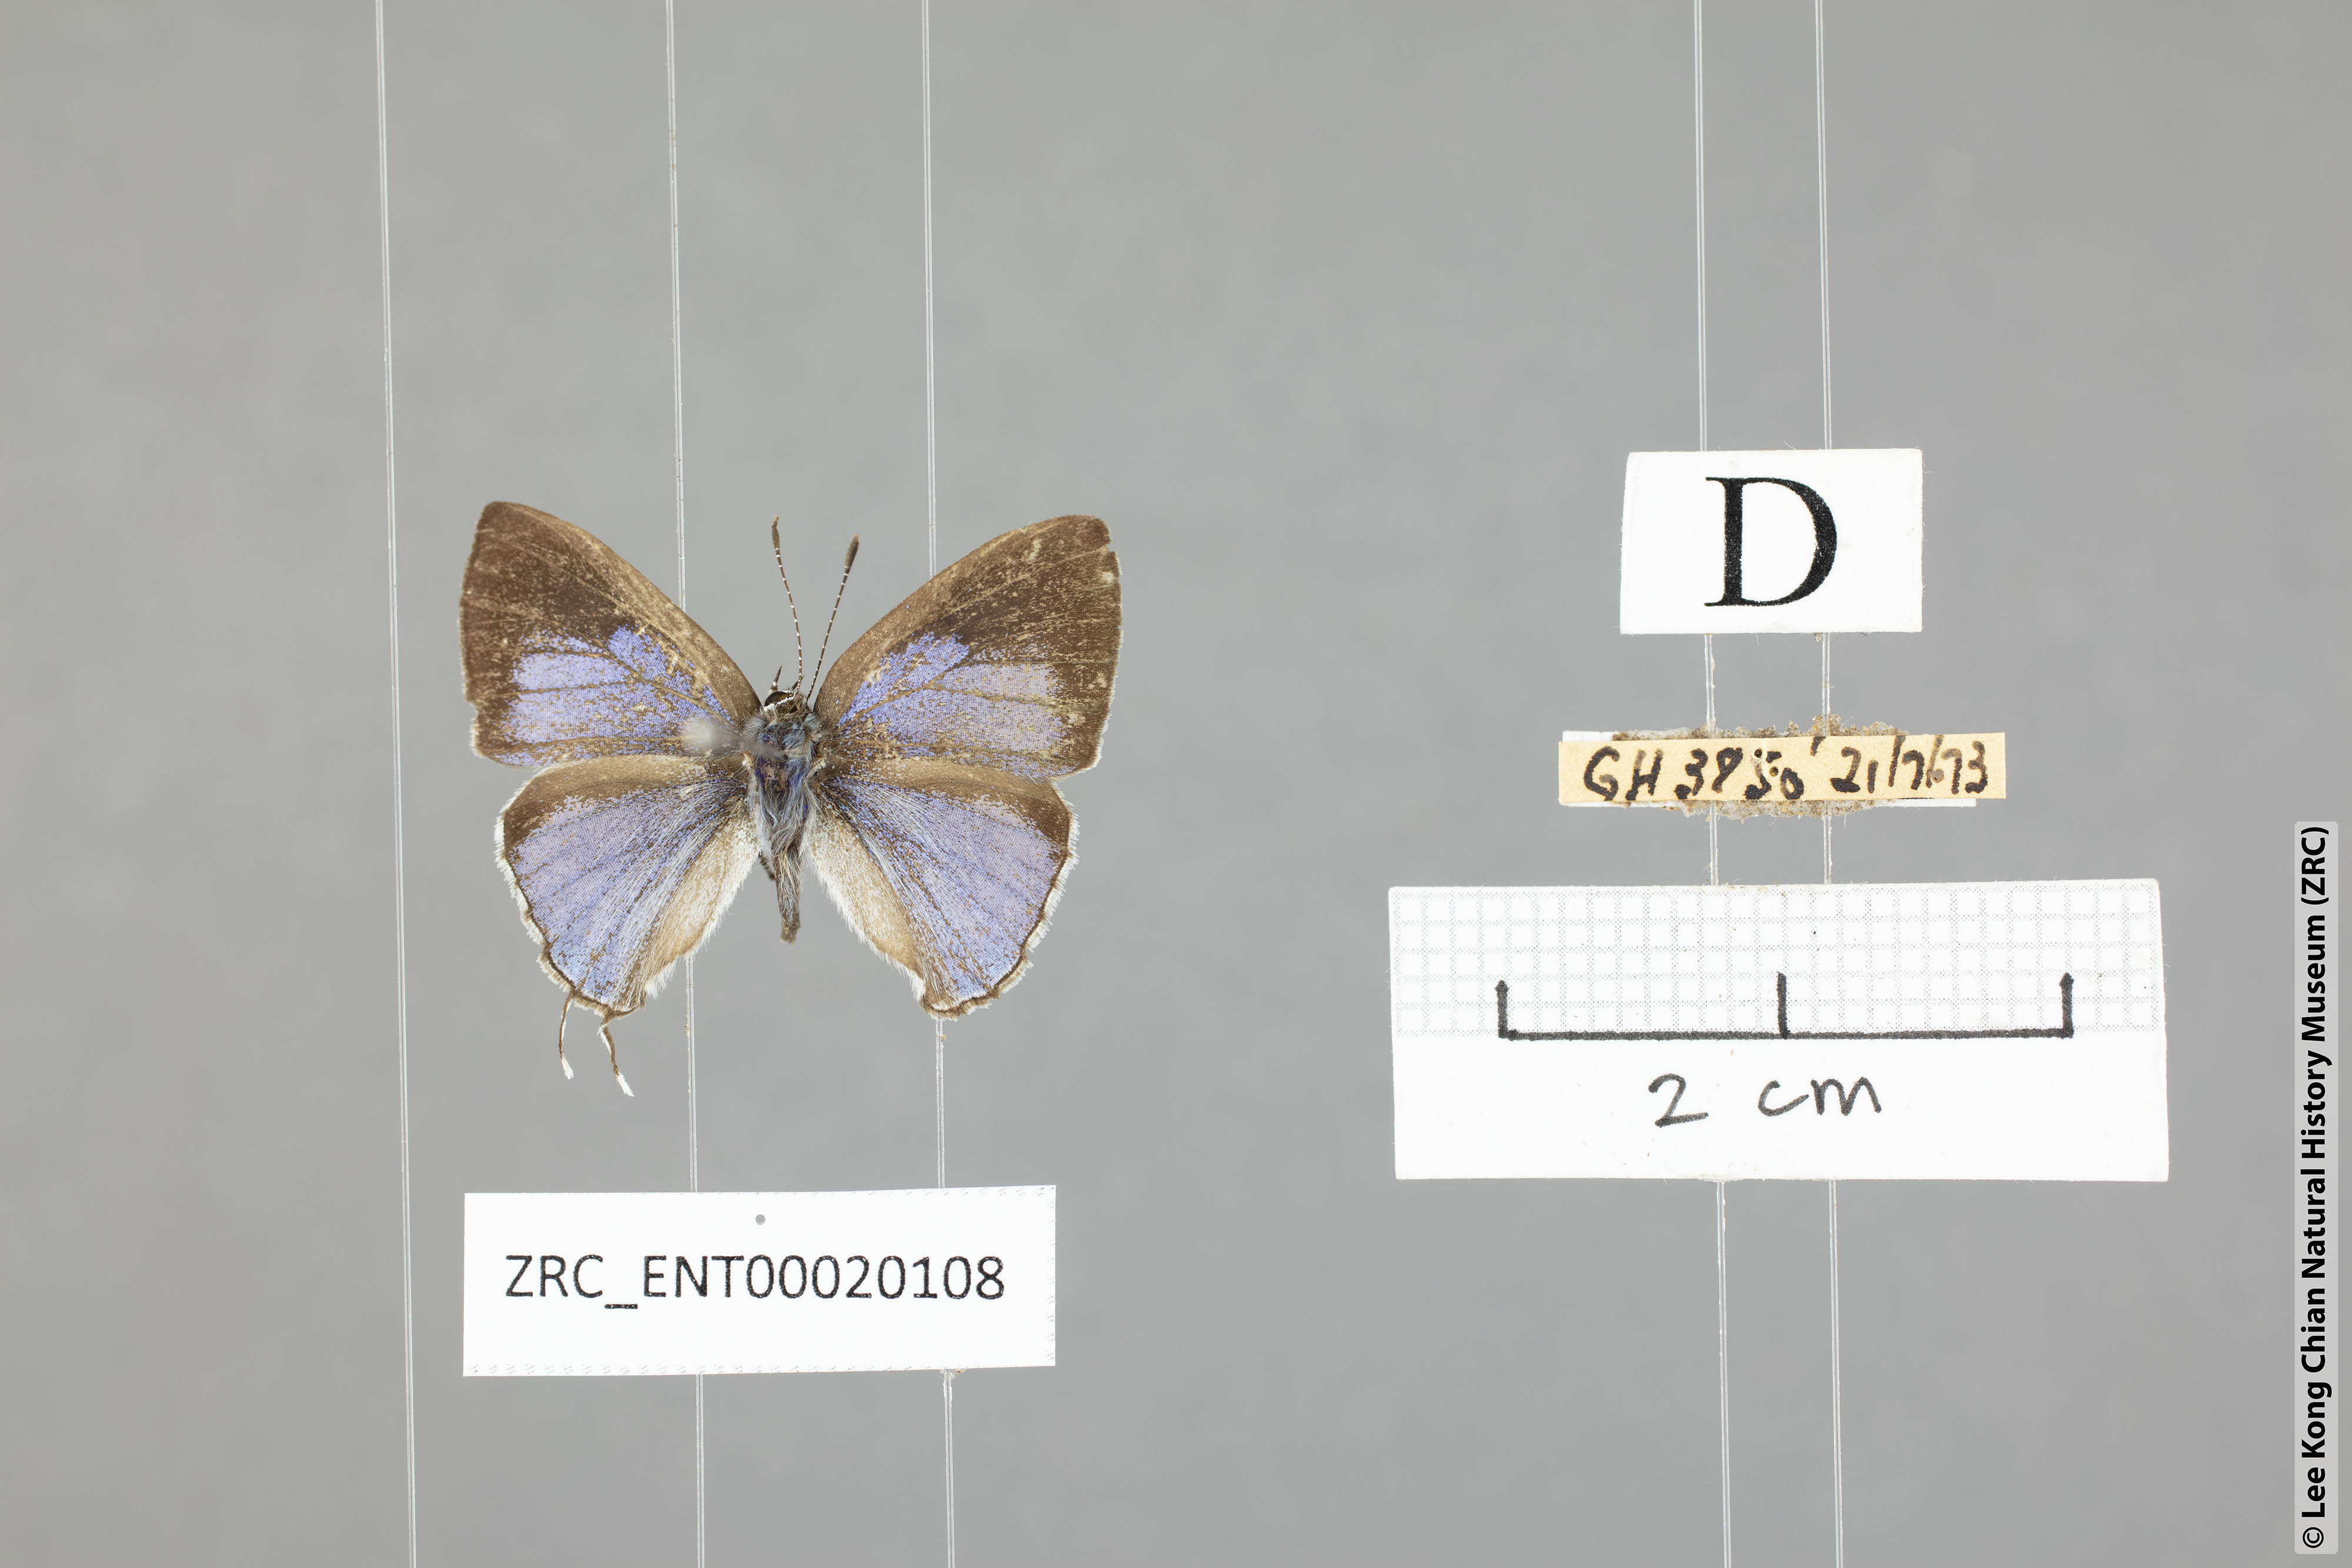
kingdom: Animalia
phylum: Arthropoda
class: Insecta
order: Lepidoptera
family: Lycaenidae
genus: Chliaria
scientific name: Chliaria pahanga
